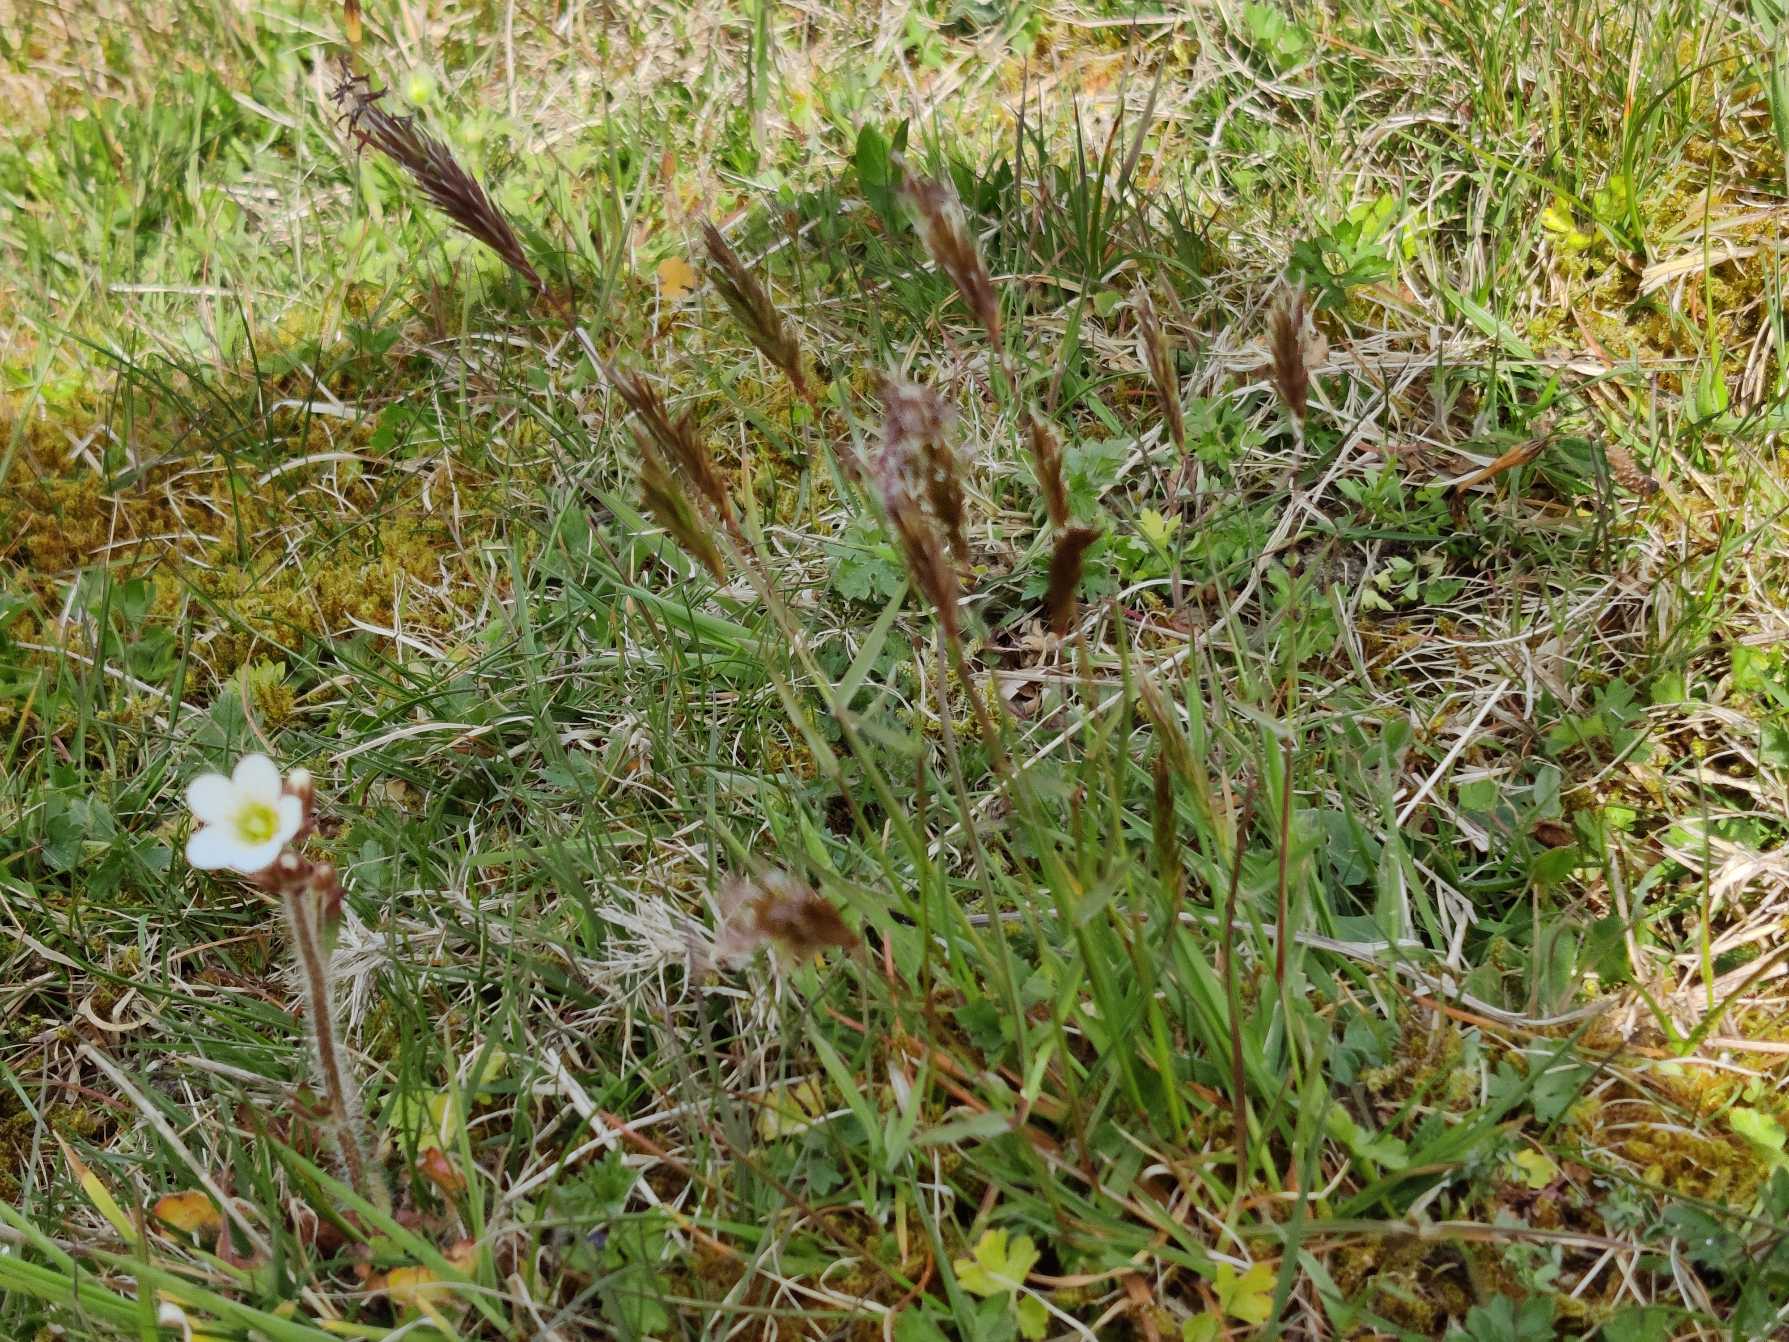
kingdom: Plantae
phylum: Tracheophyta
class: Liliopsida
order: Poales
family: Poaceae
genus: Anthoxanthum
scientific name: Anthoxanthum odoratum
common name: Vellugtende gulaks
